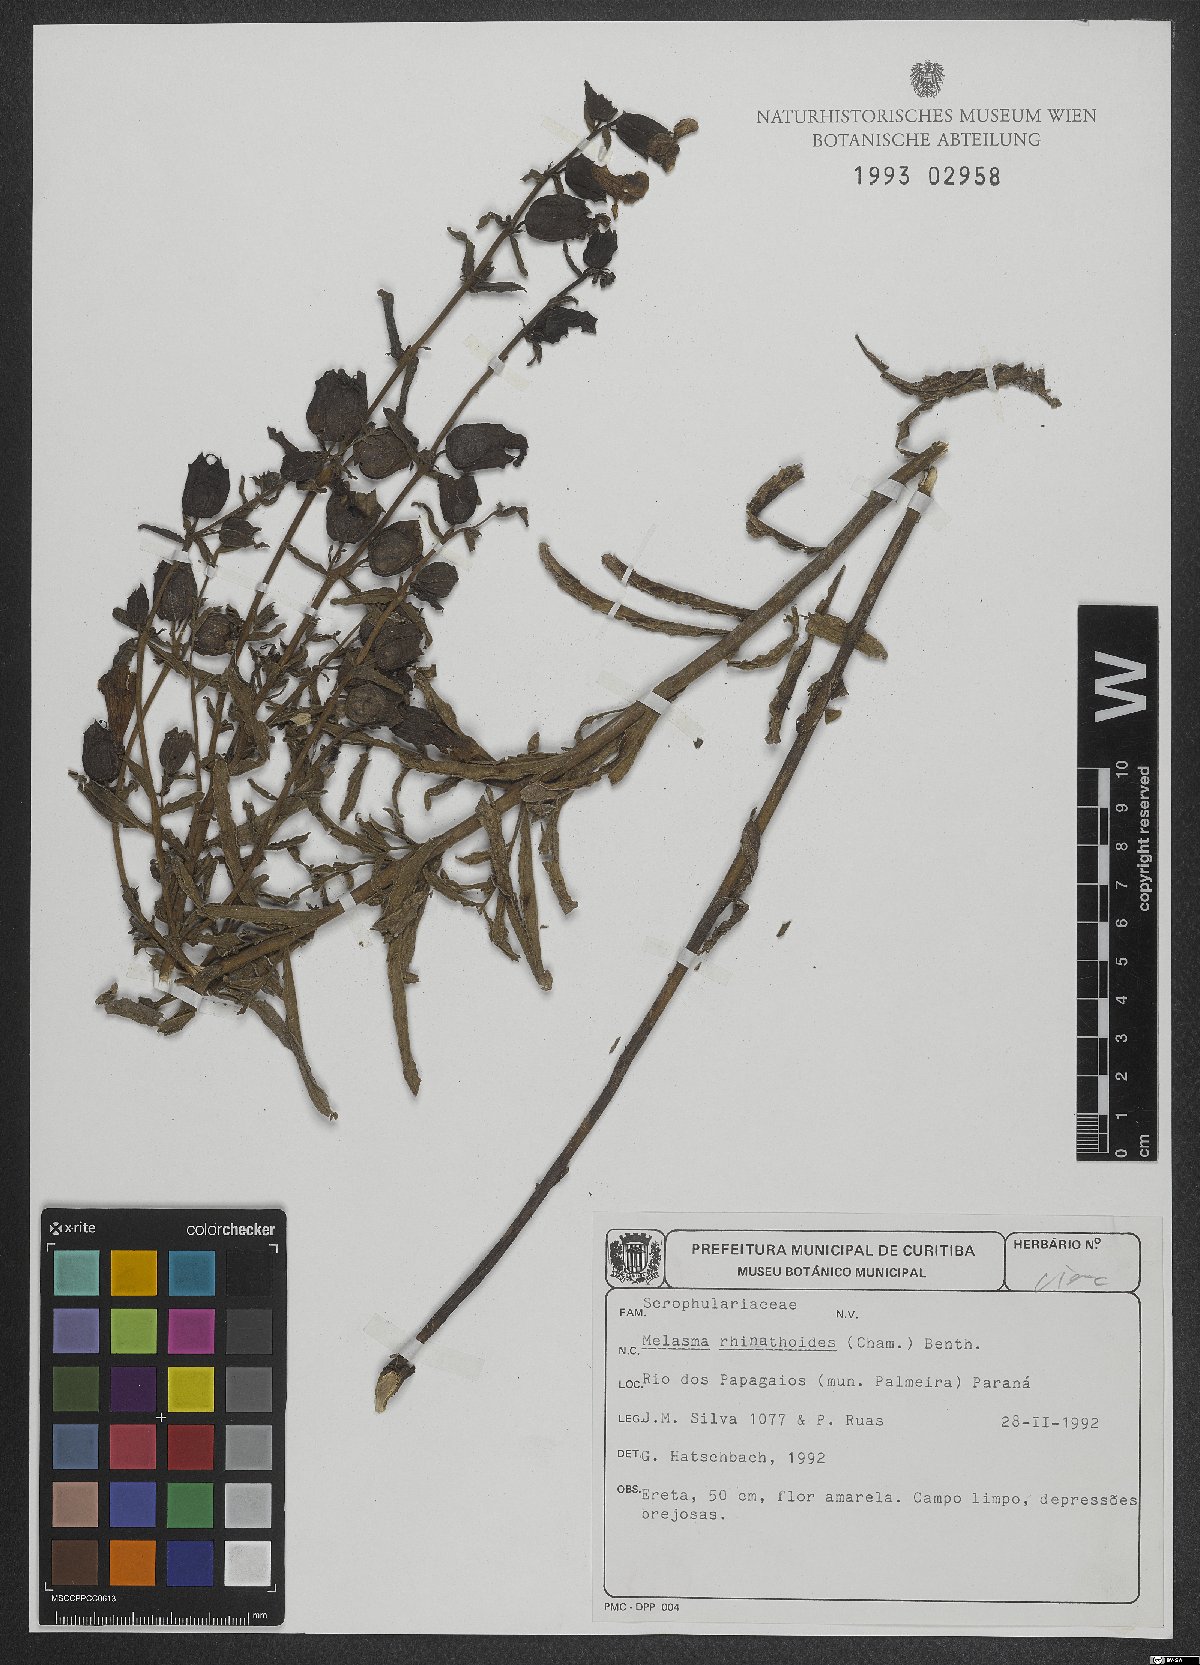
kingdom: Plantae
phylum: Tracheophyta
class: Magnoliopsida
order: Lamiales
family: Orobanchaceae
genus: Melasma
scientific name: Melasma rhinanthoides
